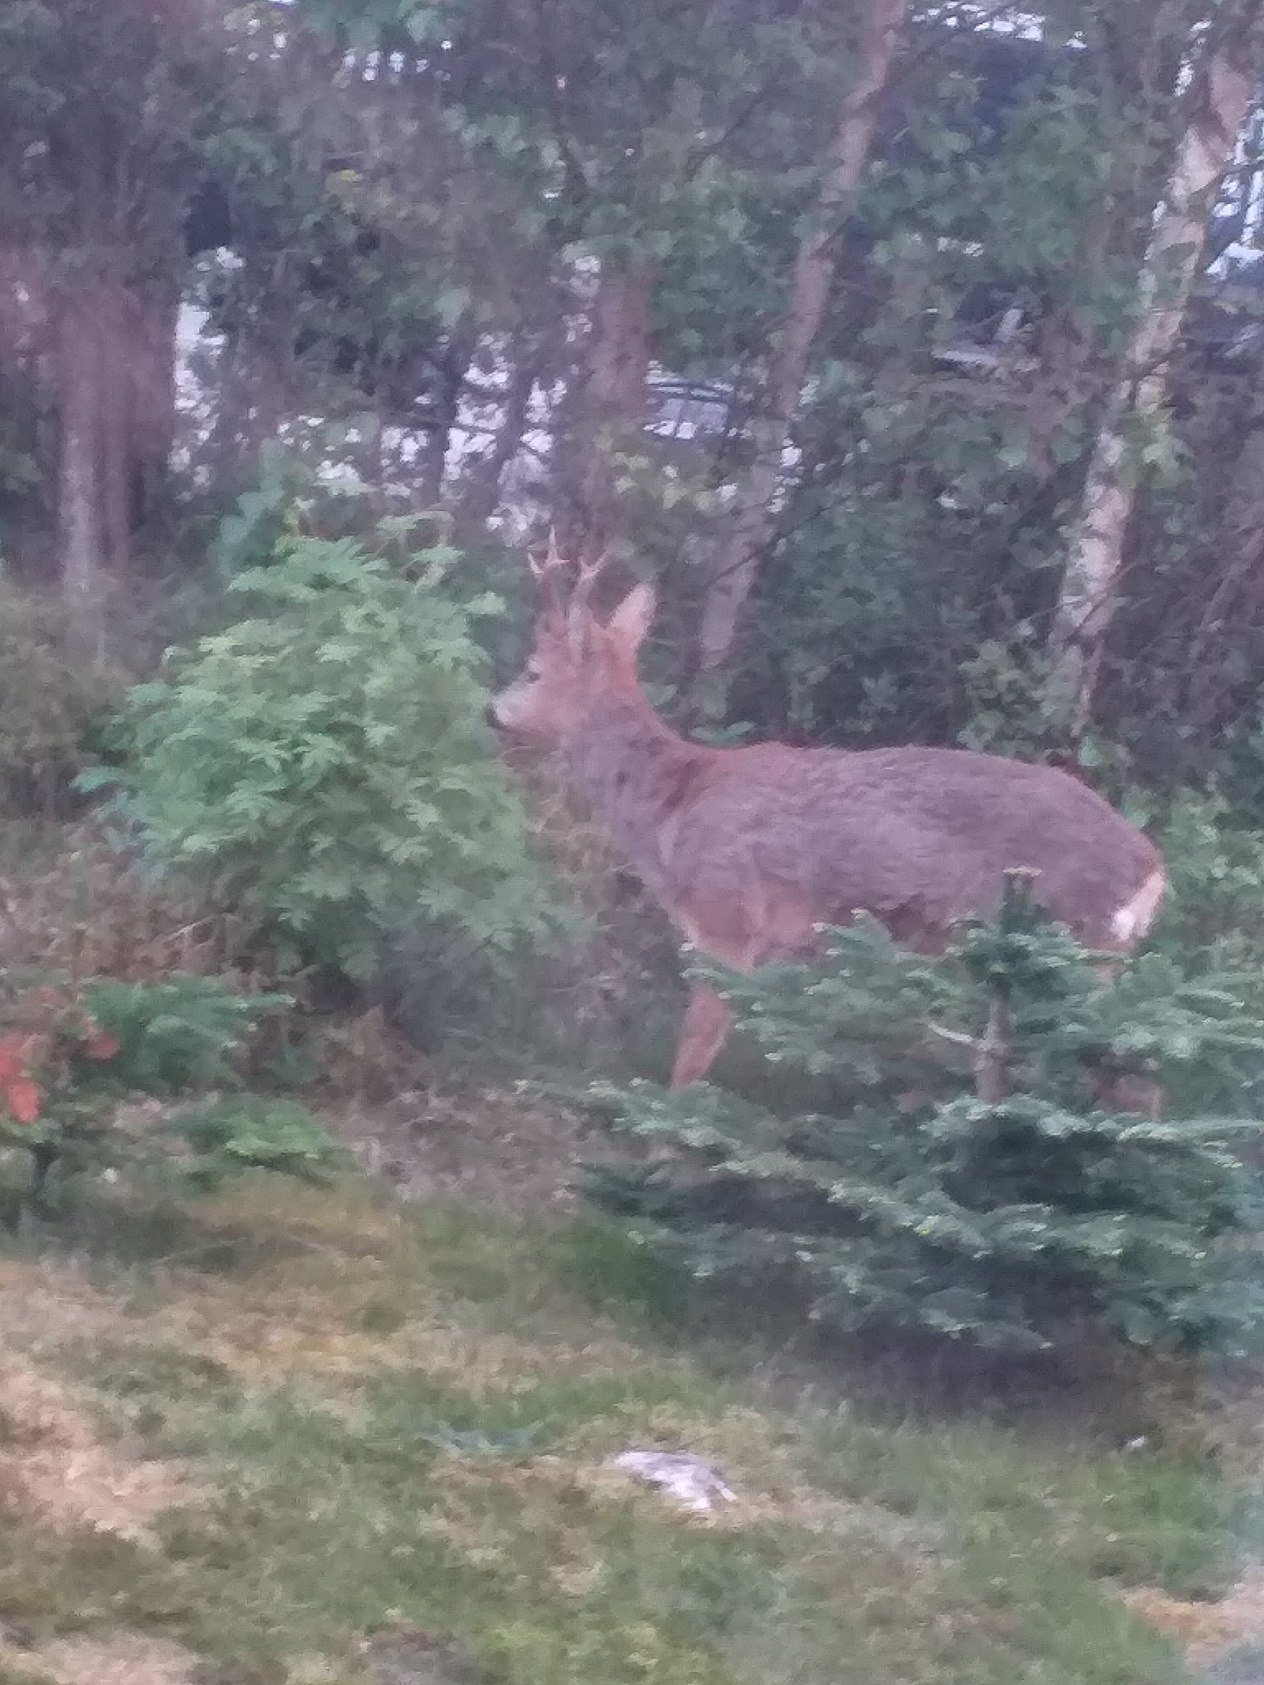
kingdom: Animalia
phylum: Chordata
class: Mammalia
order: Artiodactyla
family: Cervidae
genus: Capreolus
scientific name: Capreolus capreolus
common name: Rådyr
